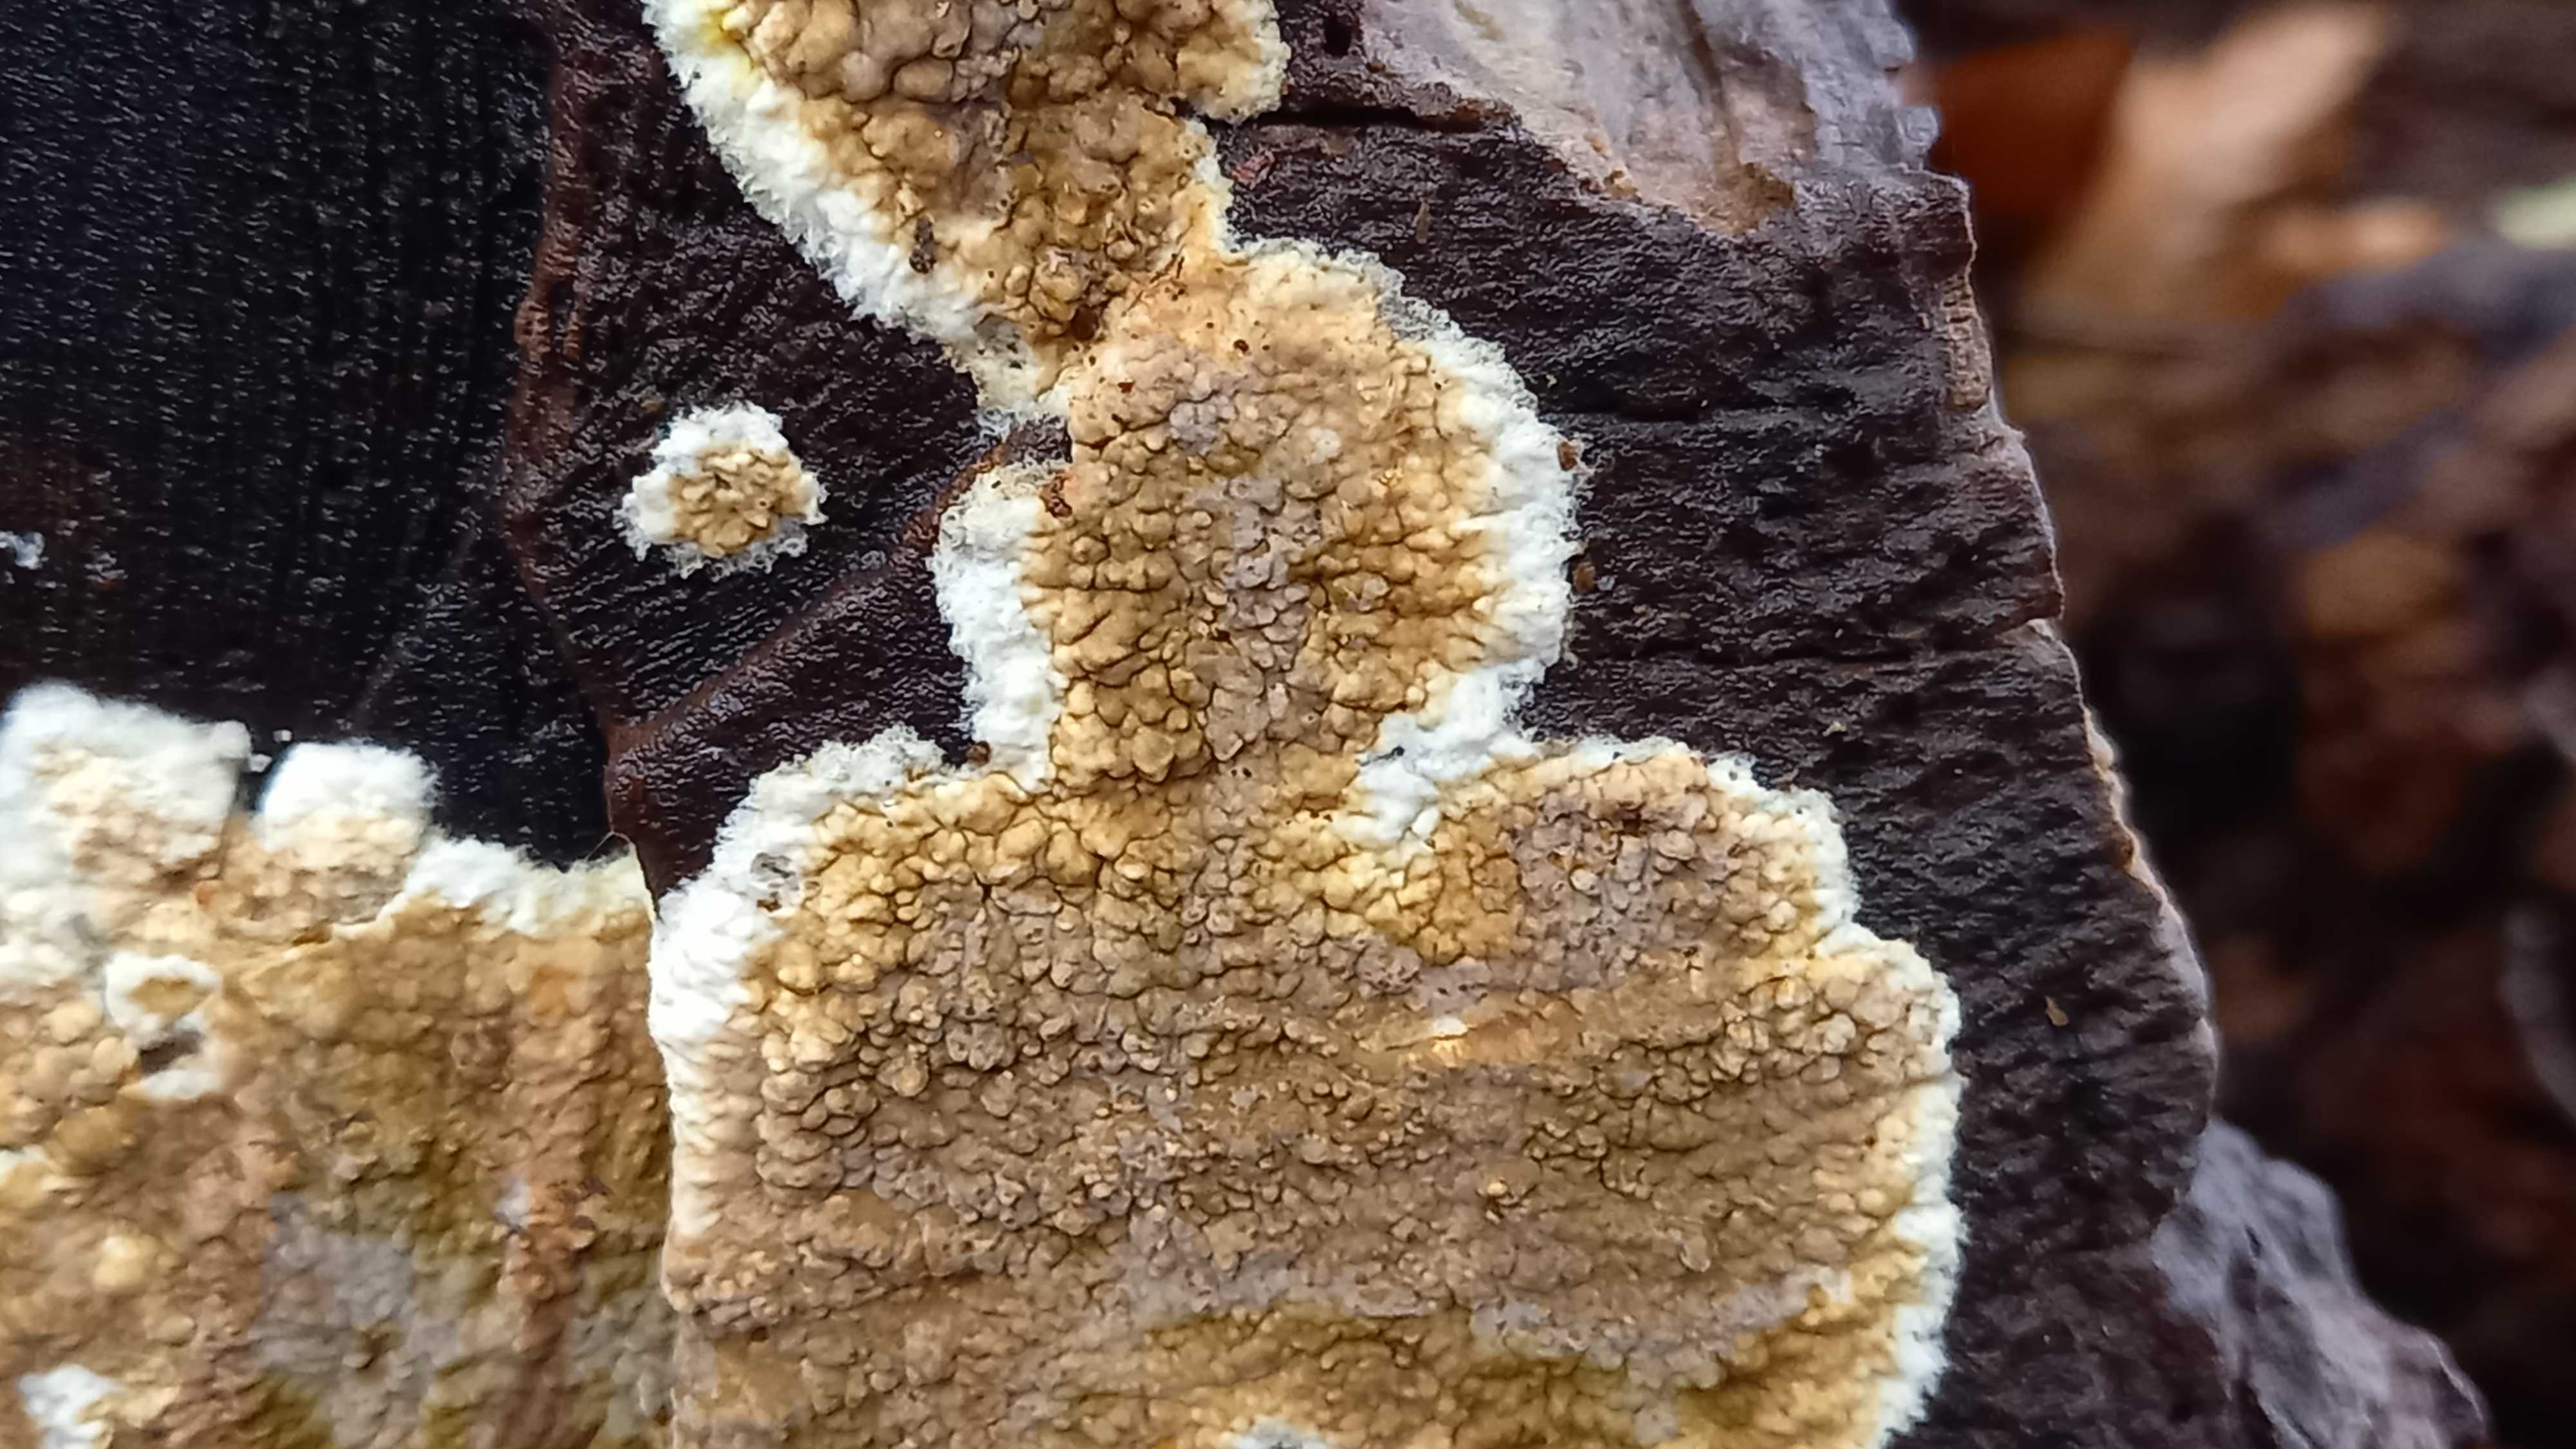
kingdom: Fungi
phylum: Basidiomycota
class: Agaricomycetes
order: Boletales
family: Coniophoraceae
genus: Coniophora
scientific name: Coniophora puteana
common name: gul tømmersvamp
